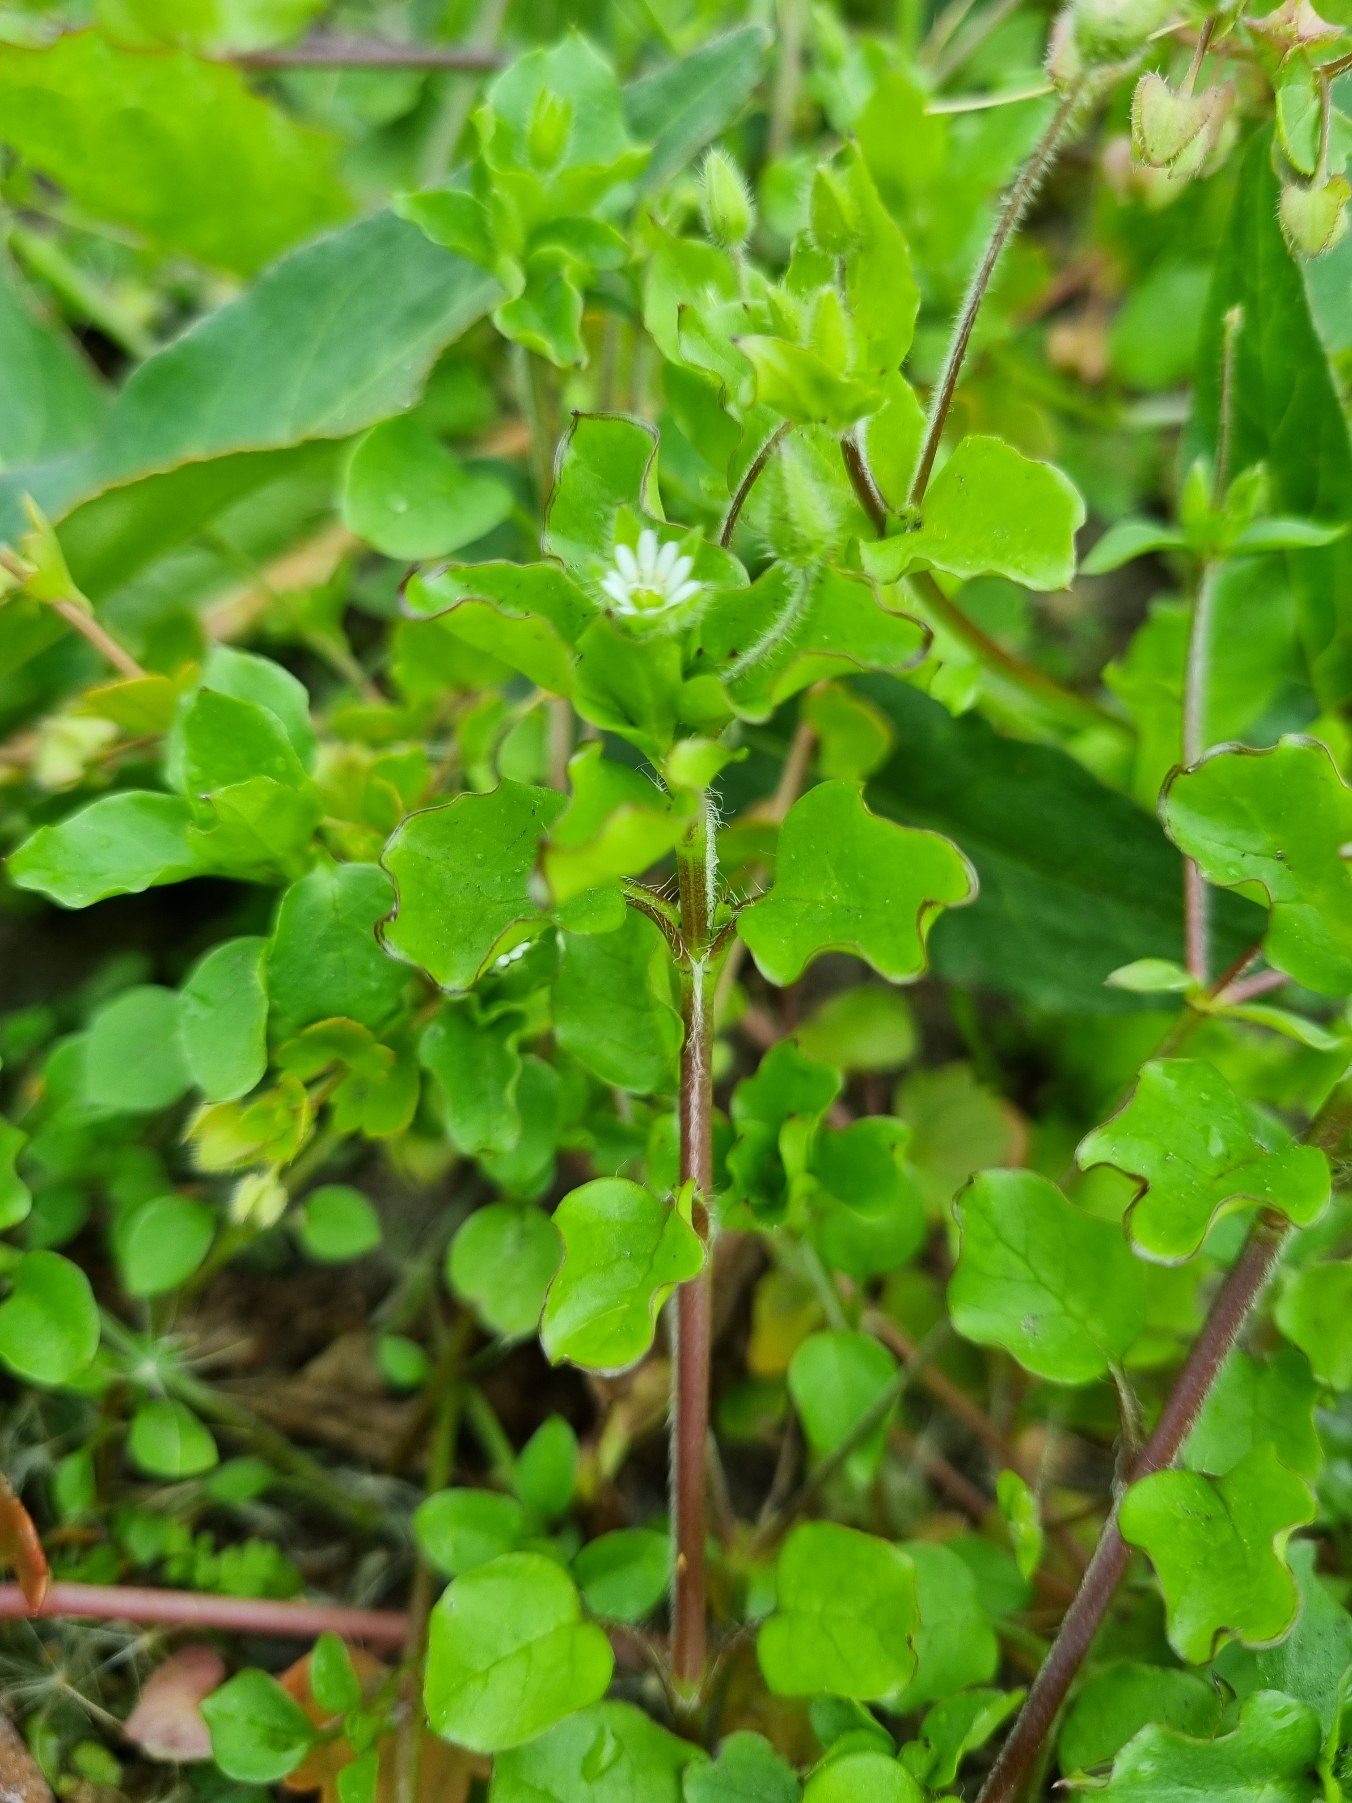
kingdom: Plantae
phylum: Tracheophyta
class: Magnoliopsida
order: Caryophyllales
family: Caryophyllaceae
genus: Stellaria
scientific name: Stellaria media
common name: Almindelig fuglegræs
